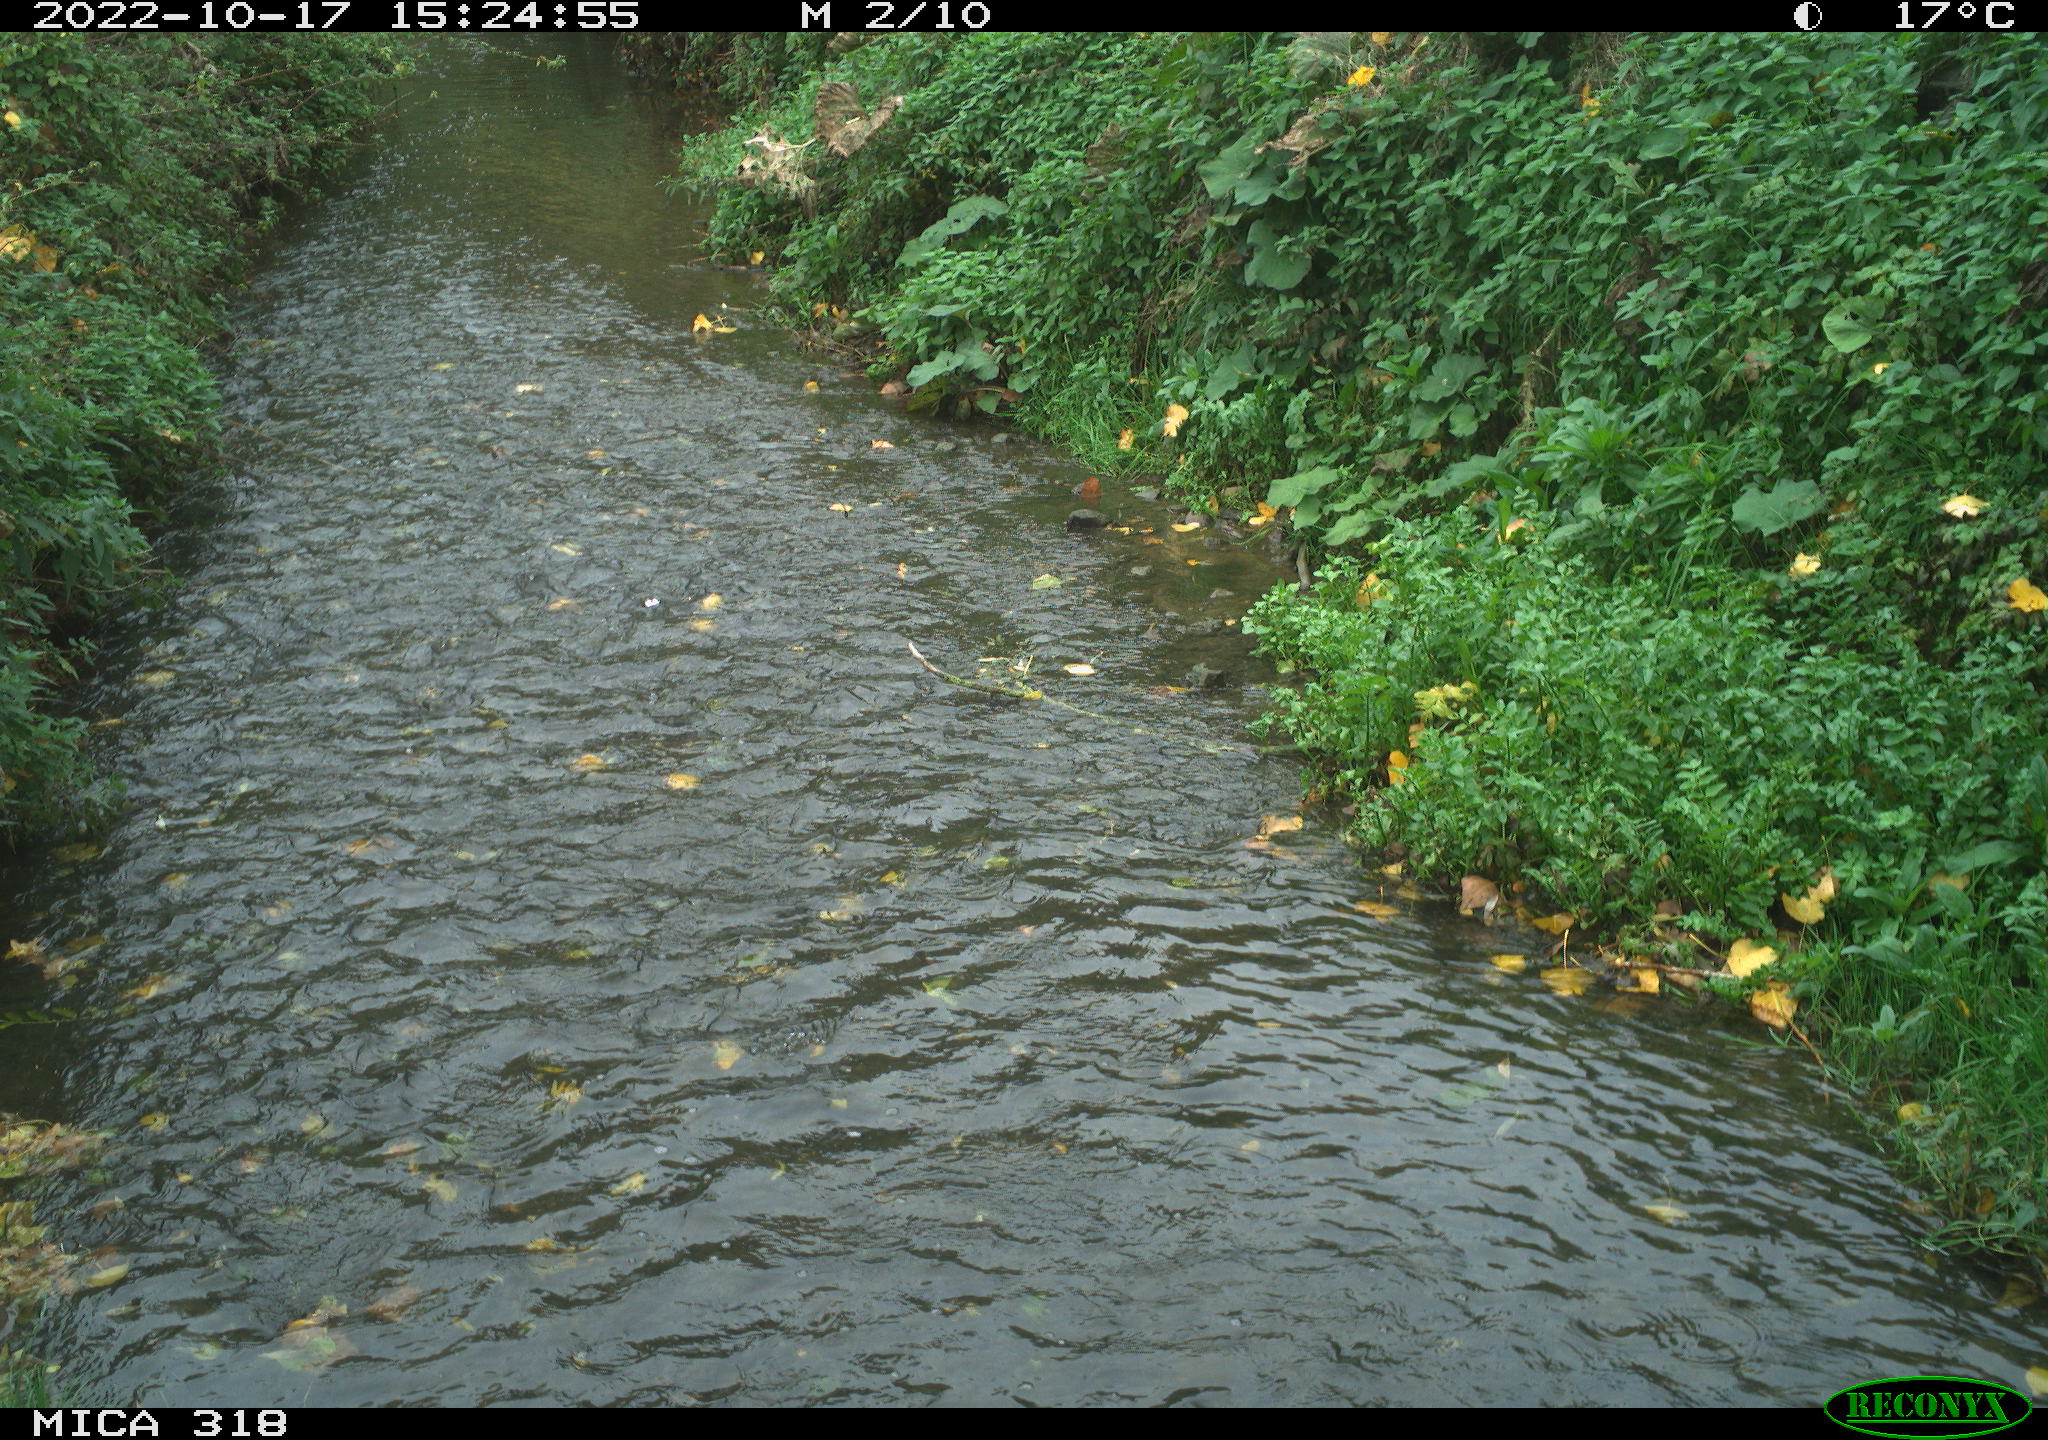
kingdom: Animalia
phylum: Chordata
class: Aves
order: Pelecaniformes
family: Ardeidae
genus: Ardea
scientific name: Ardea cinerea
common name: Grey heron
